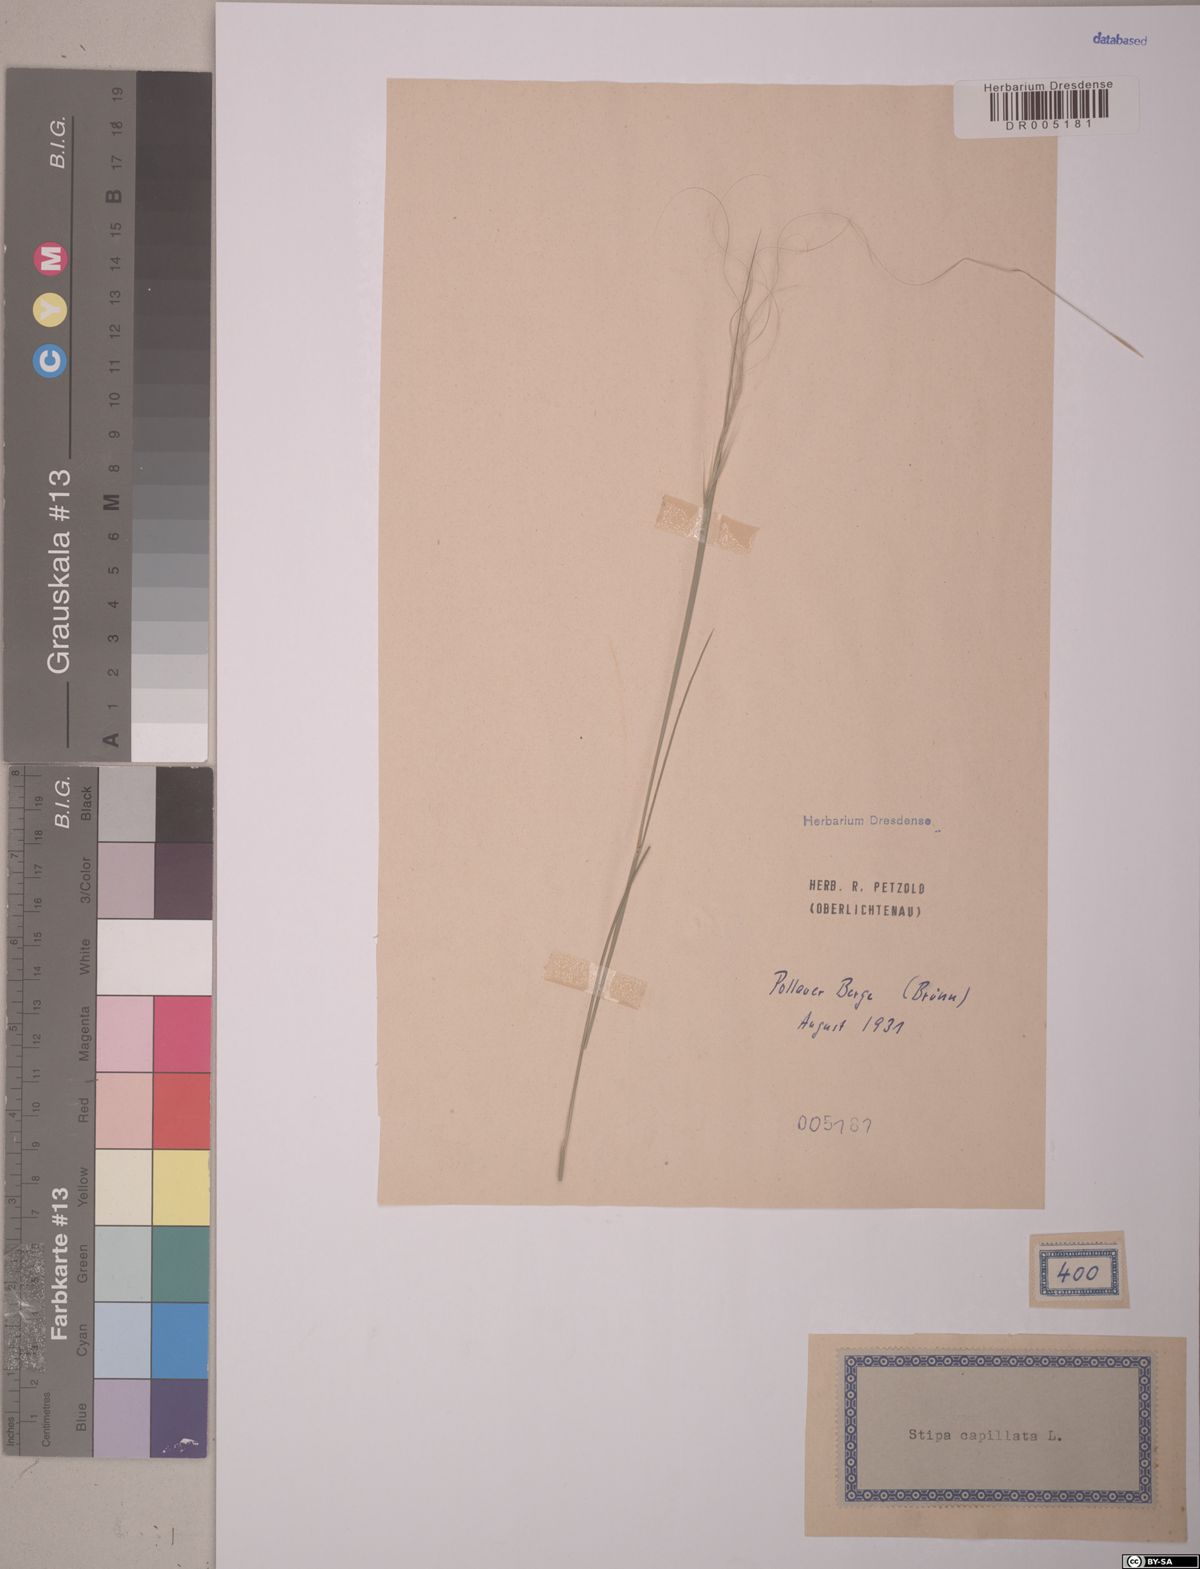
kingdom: Plantae
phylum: Tracheophyta
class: Liliopsida
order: Poales
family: Poaceae
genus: Stipa
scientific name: Stipa capillata
